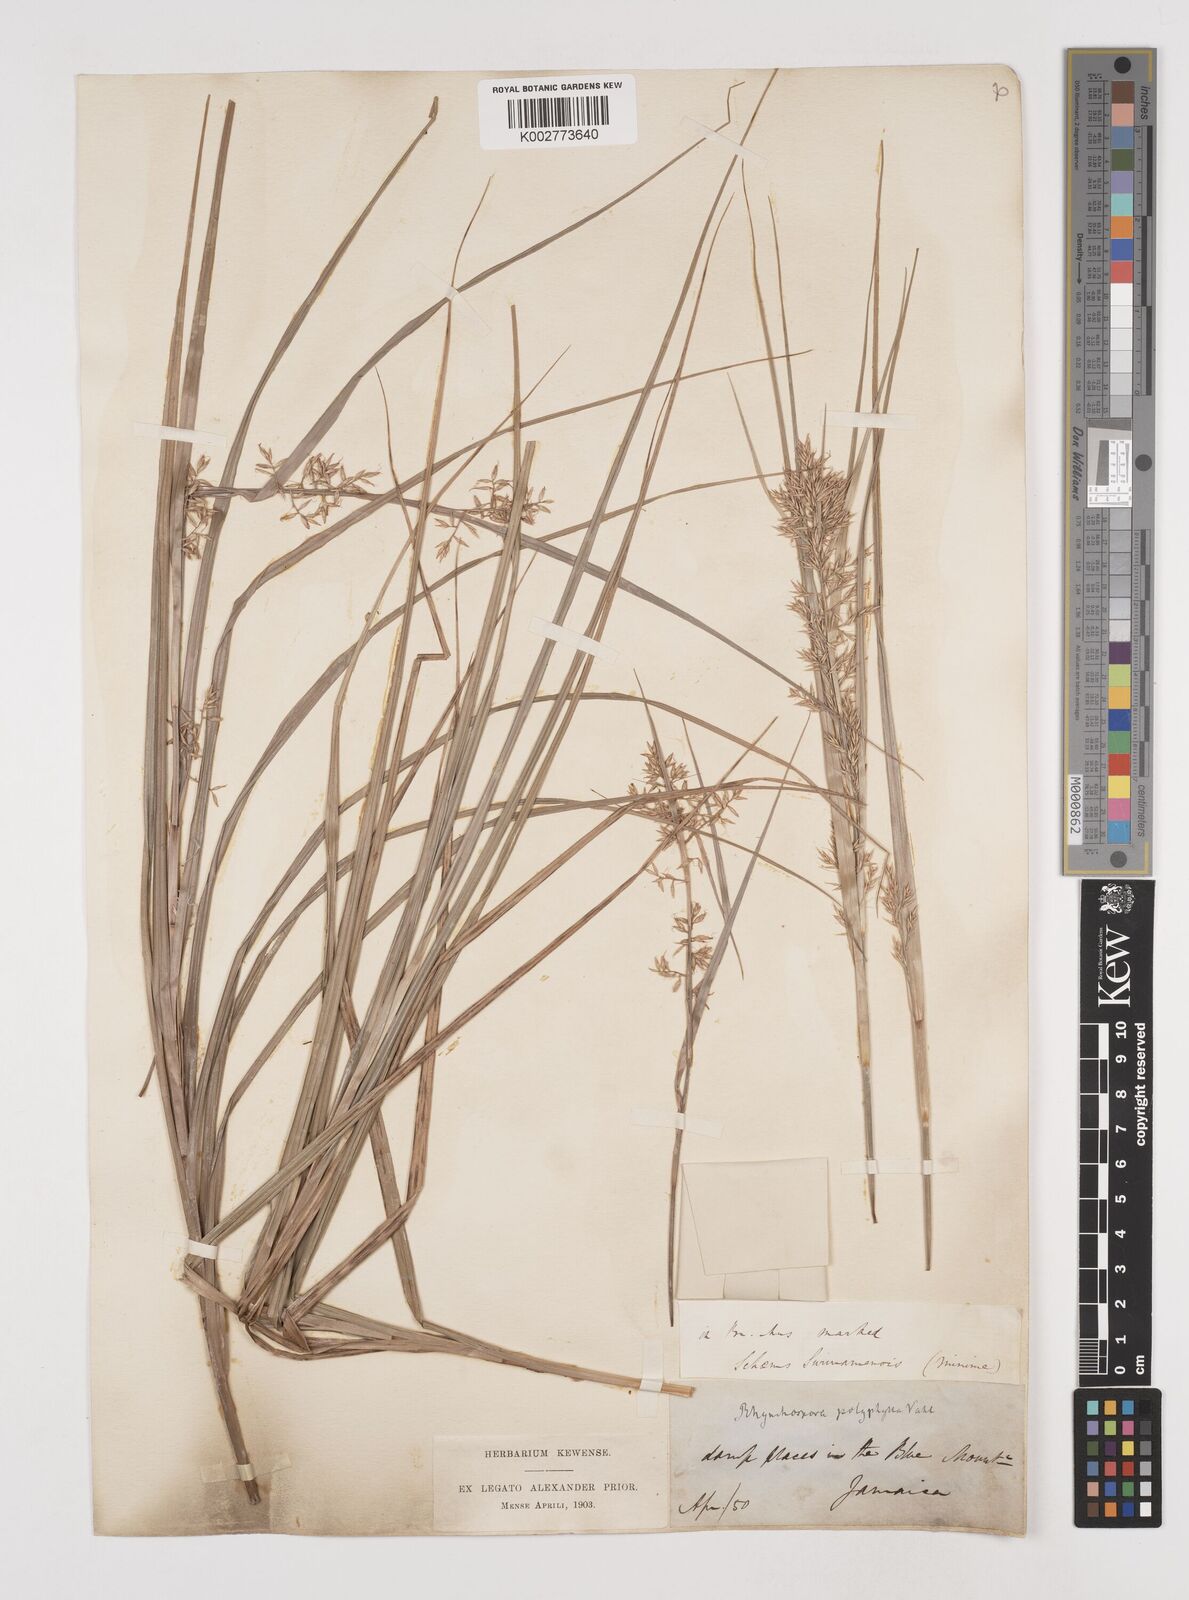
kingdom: Plantae
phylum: Tracheophyta
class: Liliopsida
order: Poales
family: Cyperaceae
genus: Rhynchospora
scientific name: Rhynchospora polyphylla
